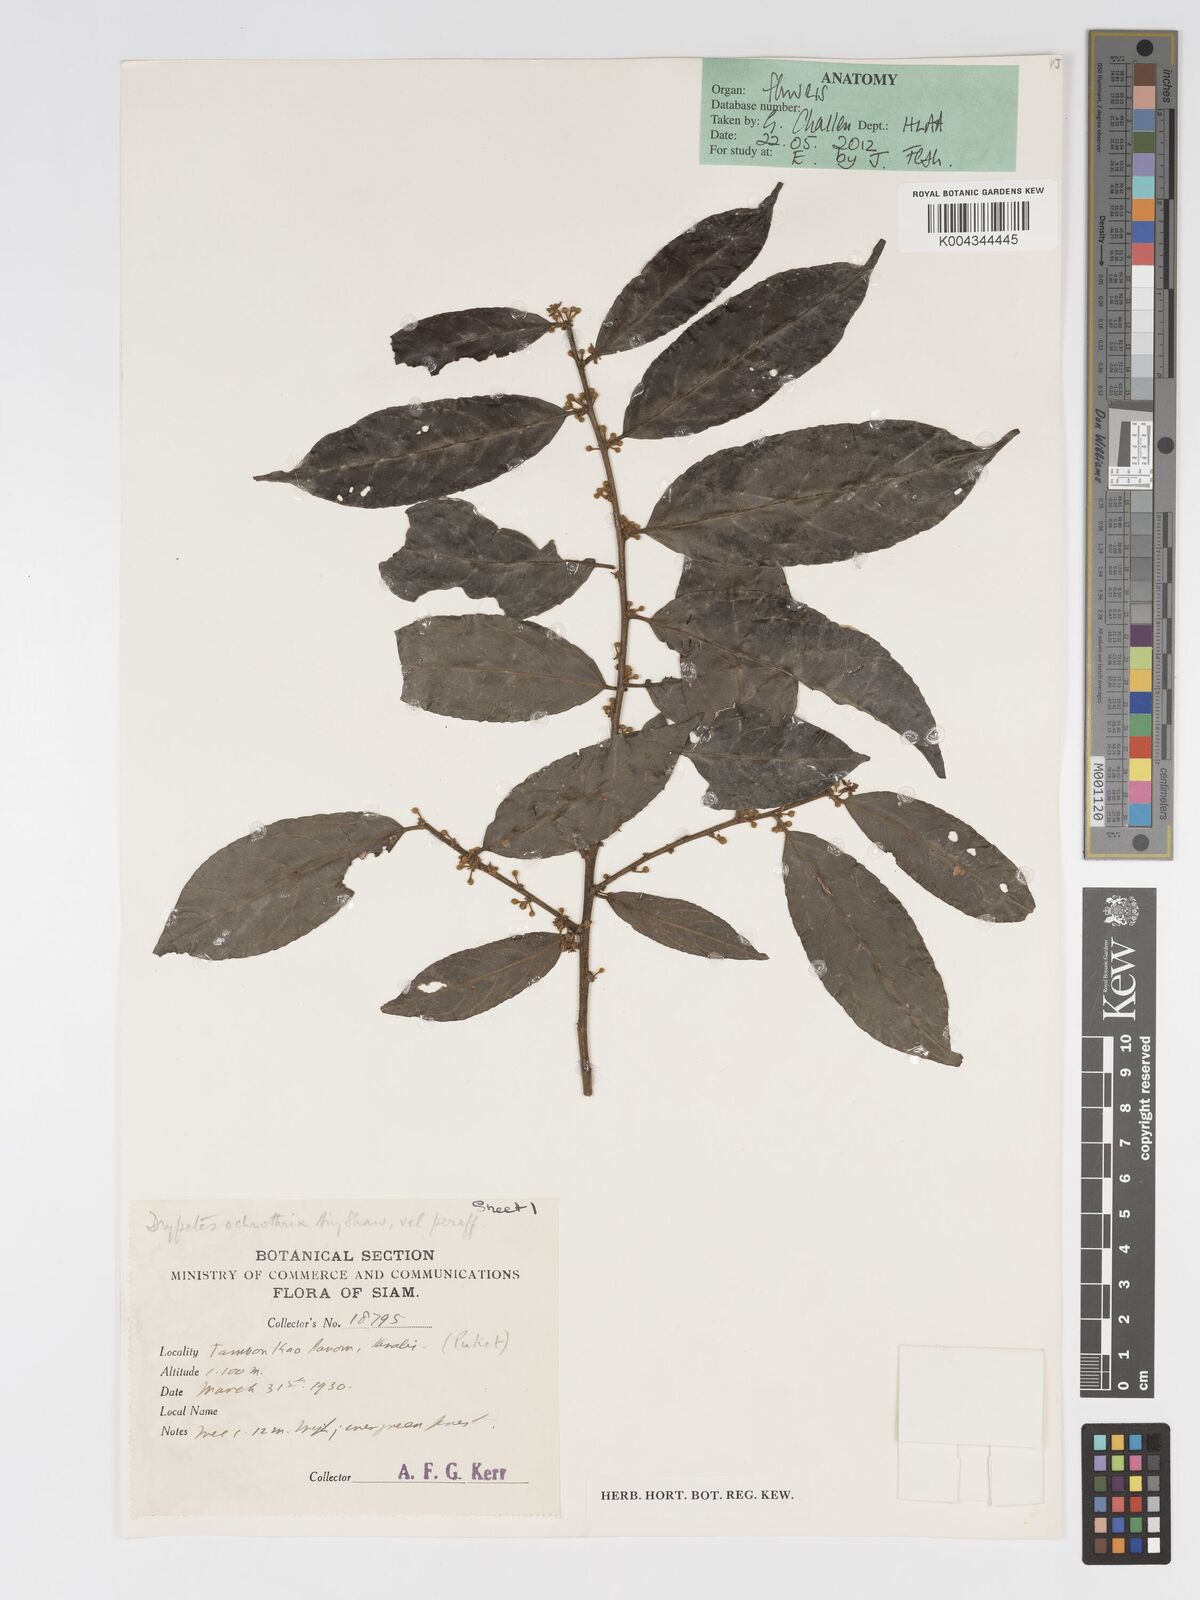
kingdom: Plantae
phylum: Tracheophyta
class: Magnoliopsida
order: Malpighiales
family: Putranjivaceae
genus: Drypetes
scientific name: Drypetes ochrothrix
